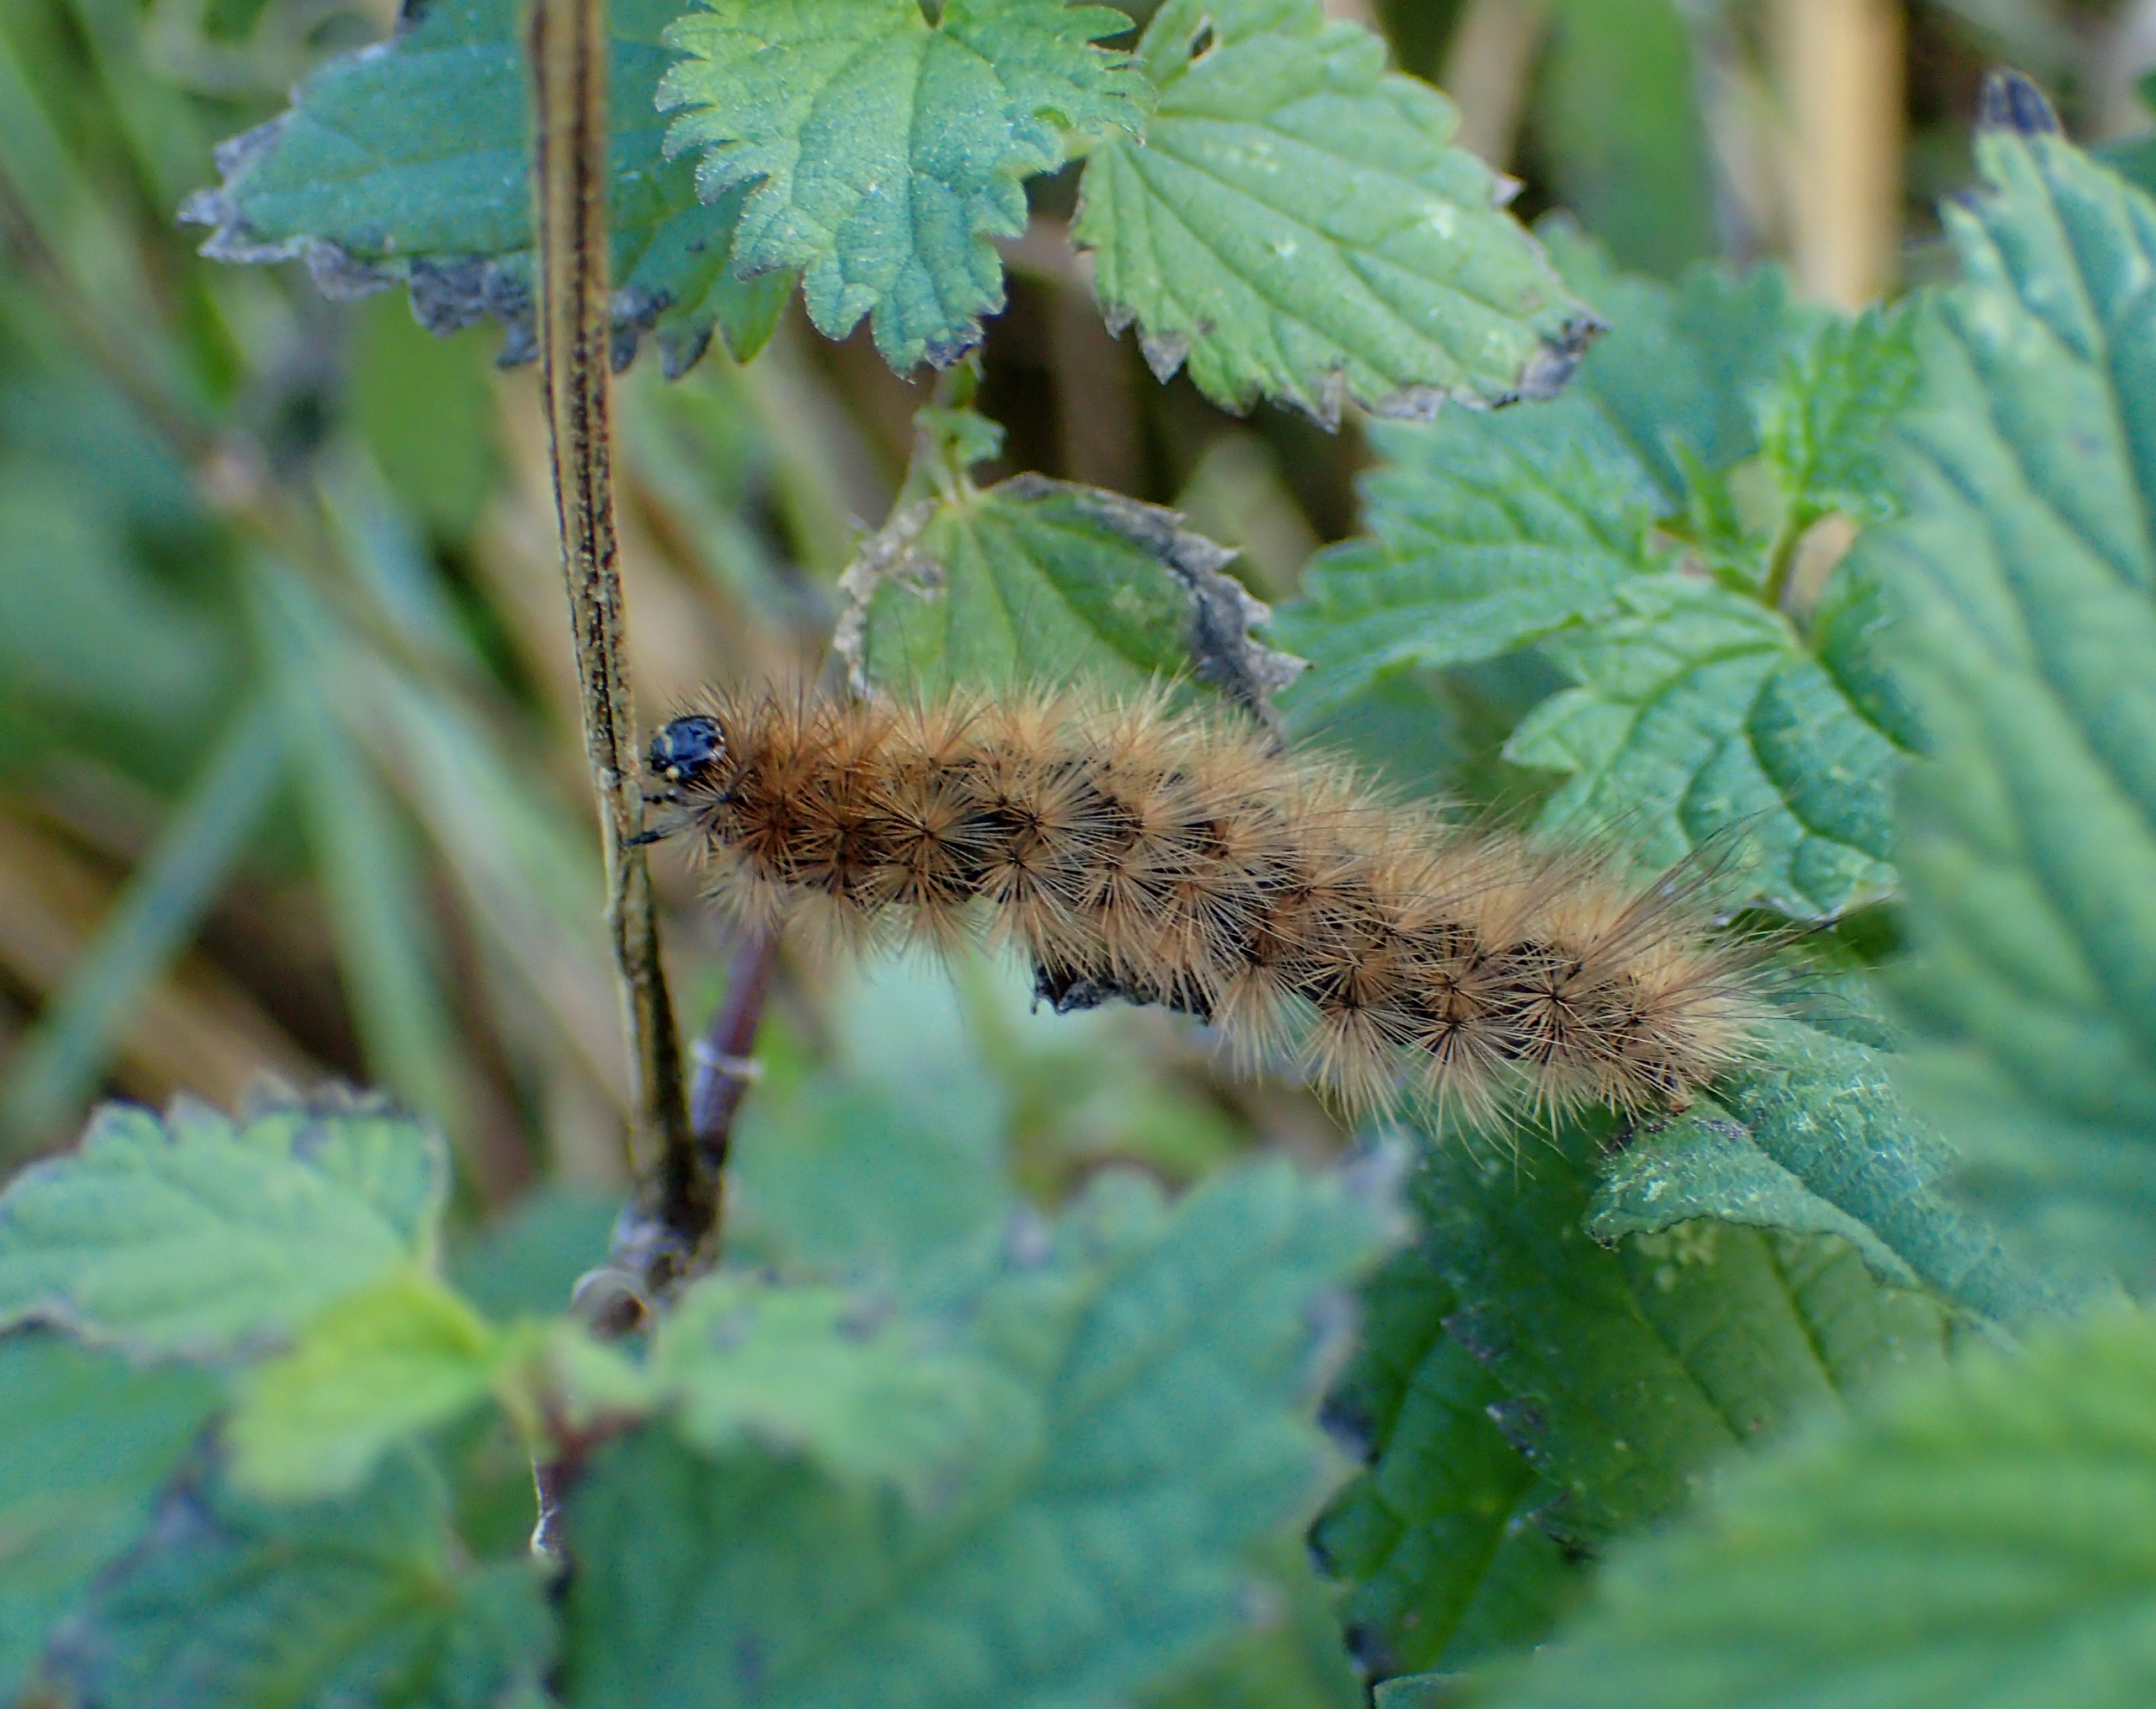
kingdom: Animalia
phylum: Arthropoda
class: Insecta
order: Lepidoptera
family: Erebidae
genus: Phragmatobia
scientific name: Phragmatobia fuliginosa
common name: Kanelbjørn
